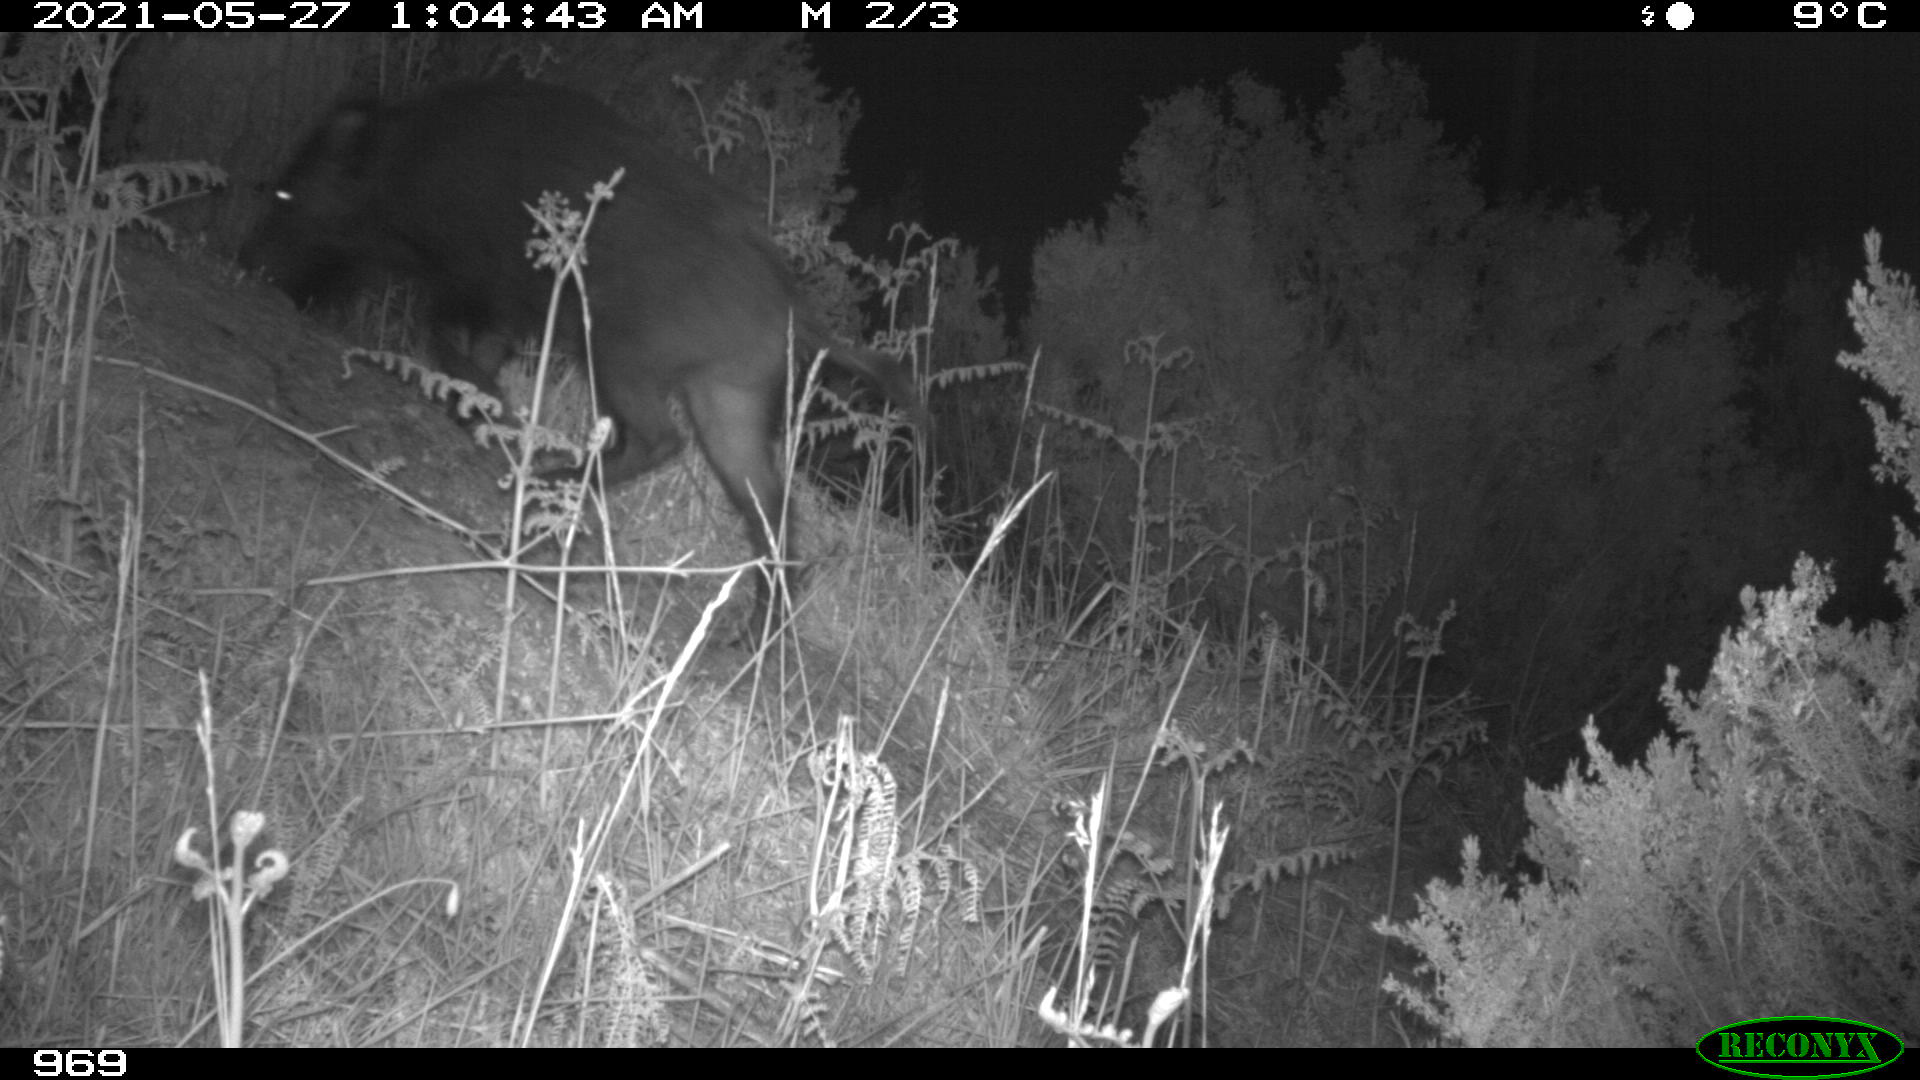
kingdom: Animalia
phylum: Chordata
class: Mammalia
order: Artiodactyla
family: Suidae
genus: Sus
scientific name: Sus scrofa
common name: Wild boar
